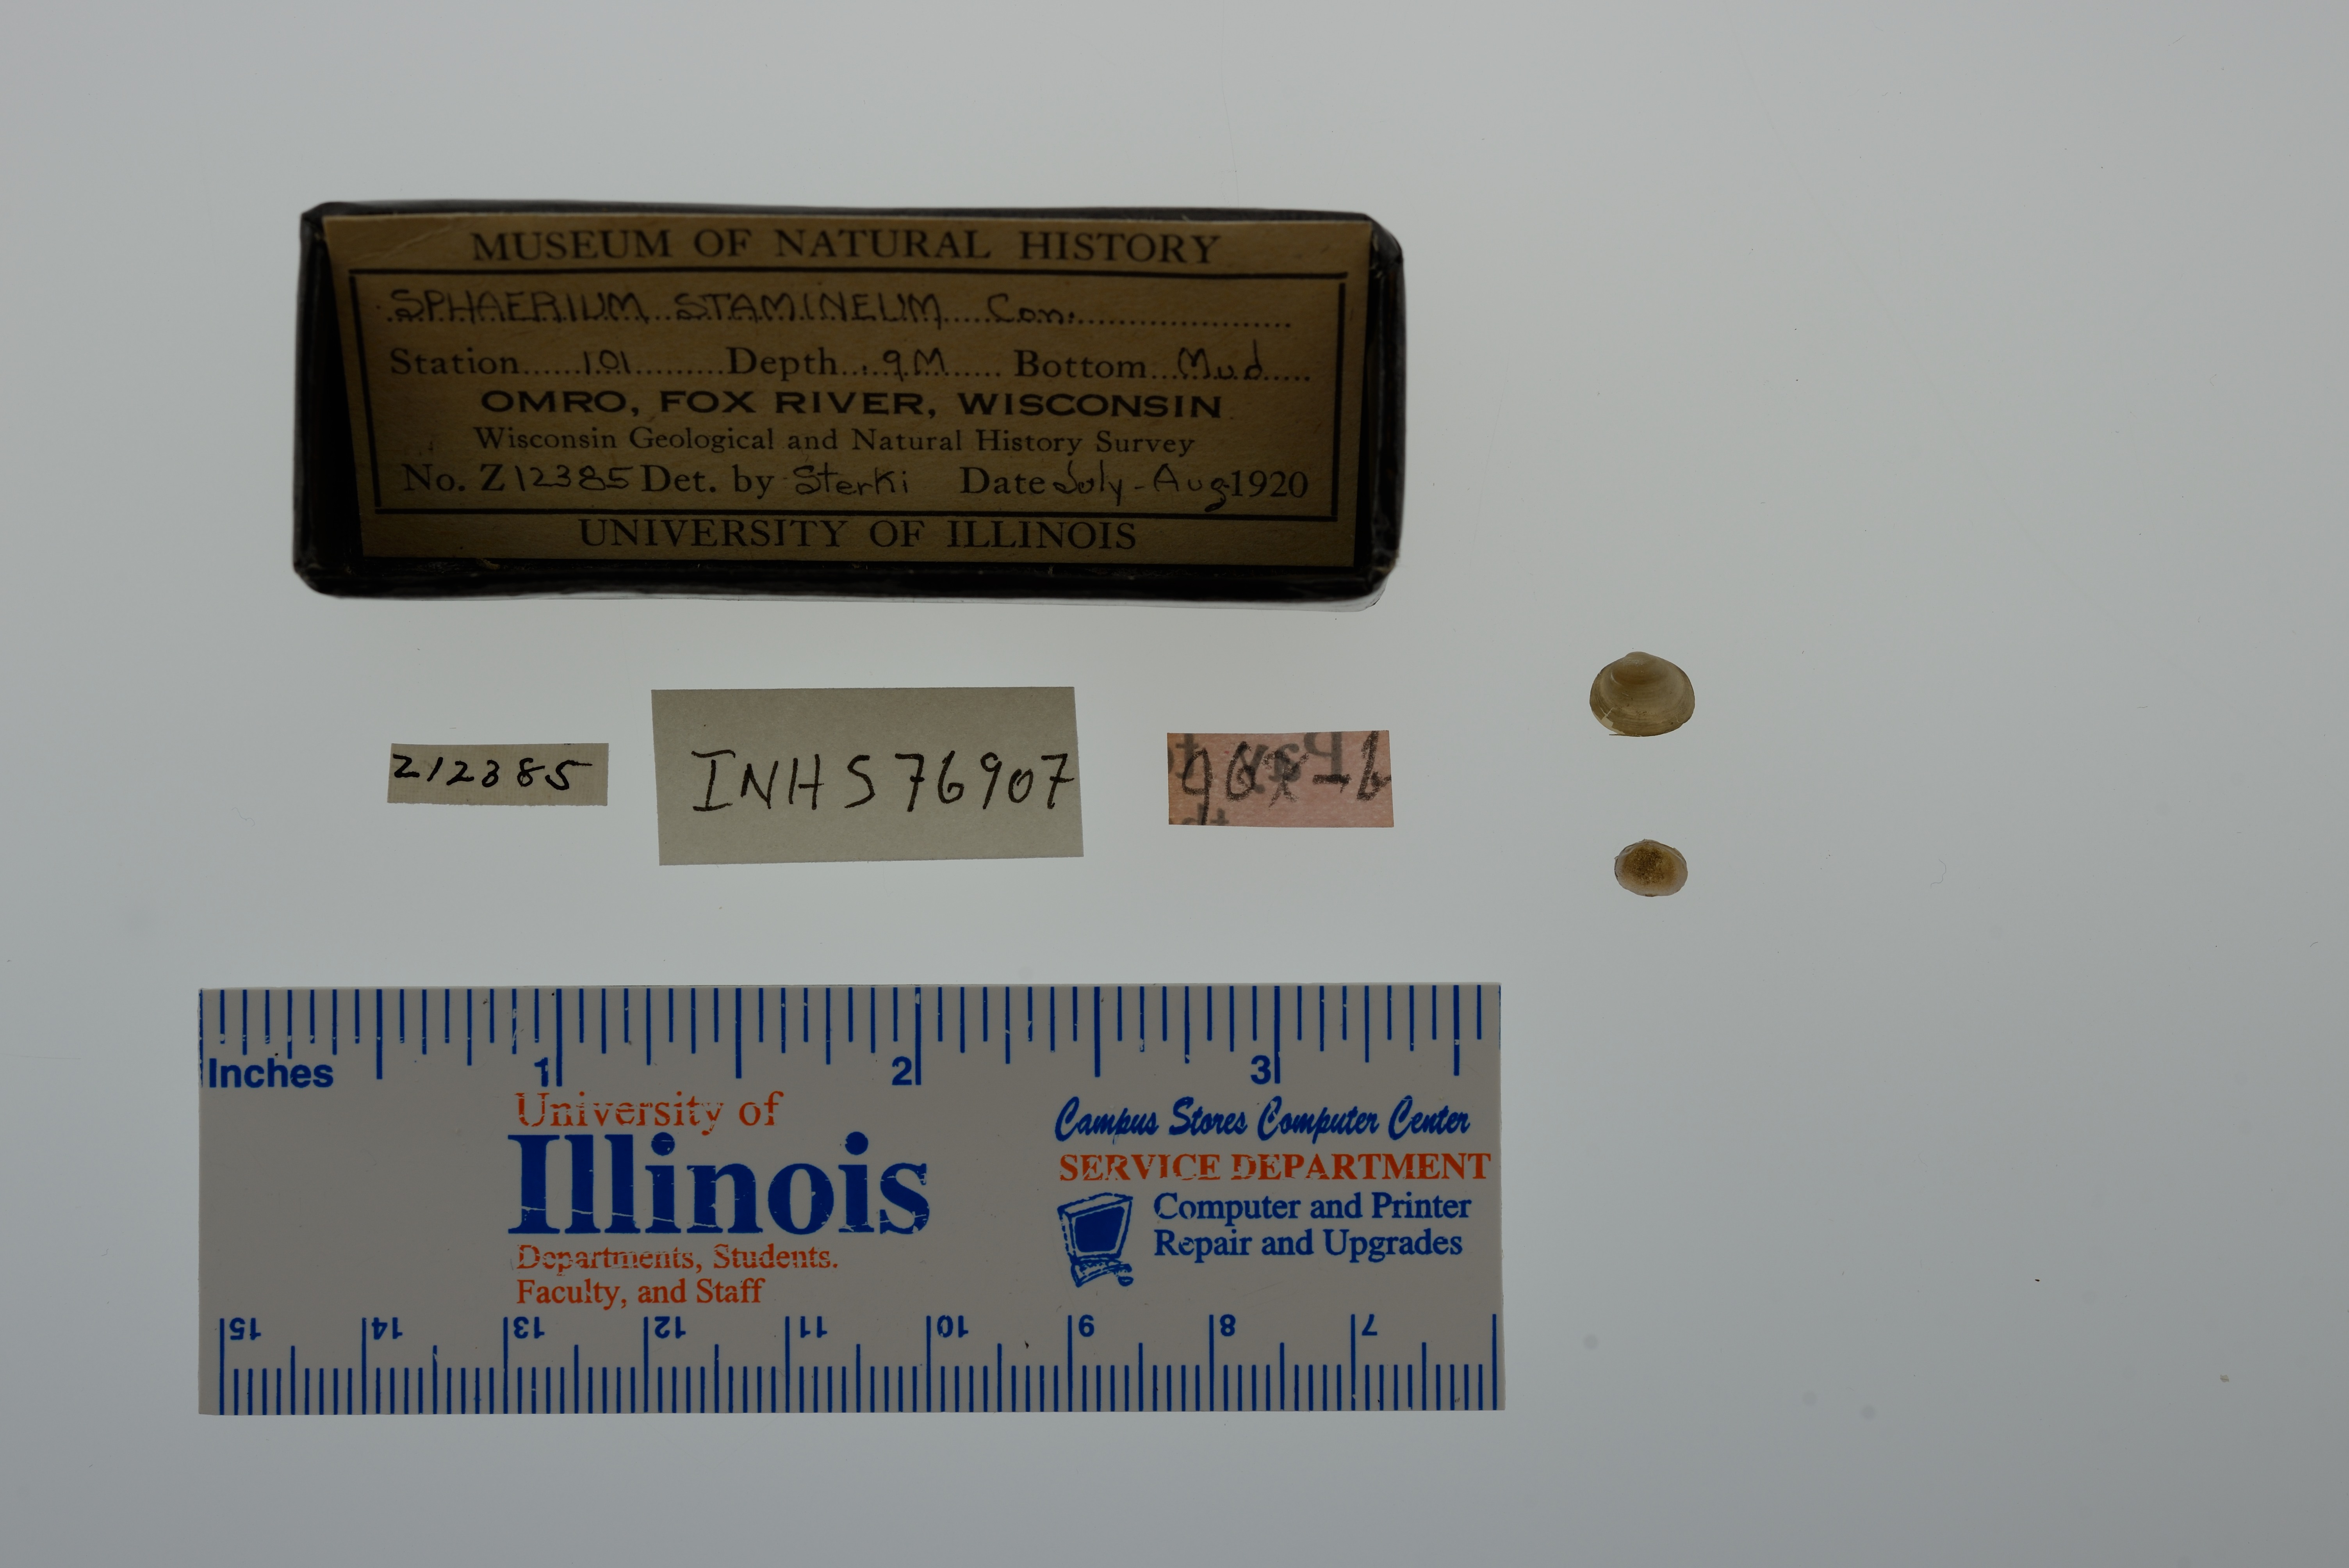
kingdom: Animalia
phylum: Mollusca
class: Bivalvia
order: Sphaeriida
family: Sphaeriidae
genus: Sphaerium
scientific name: Sphaerium striatinum
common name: Striated fingernailclam
